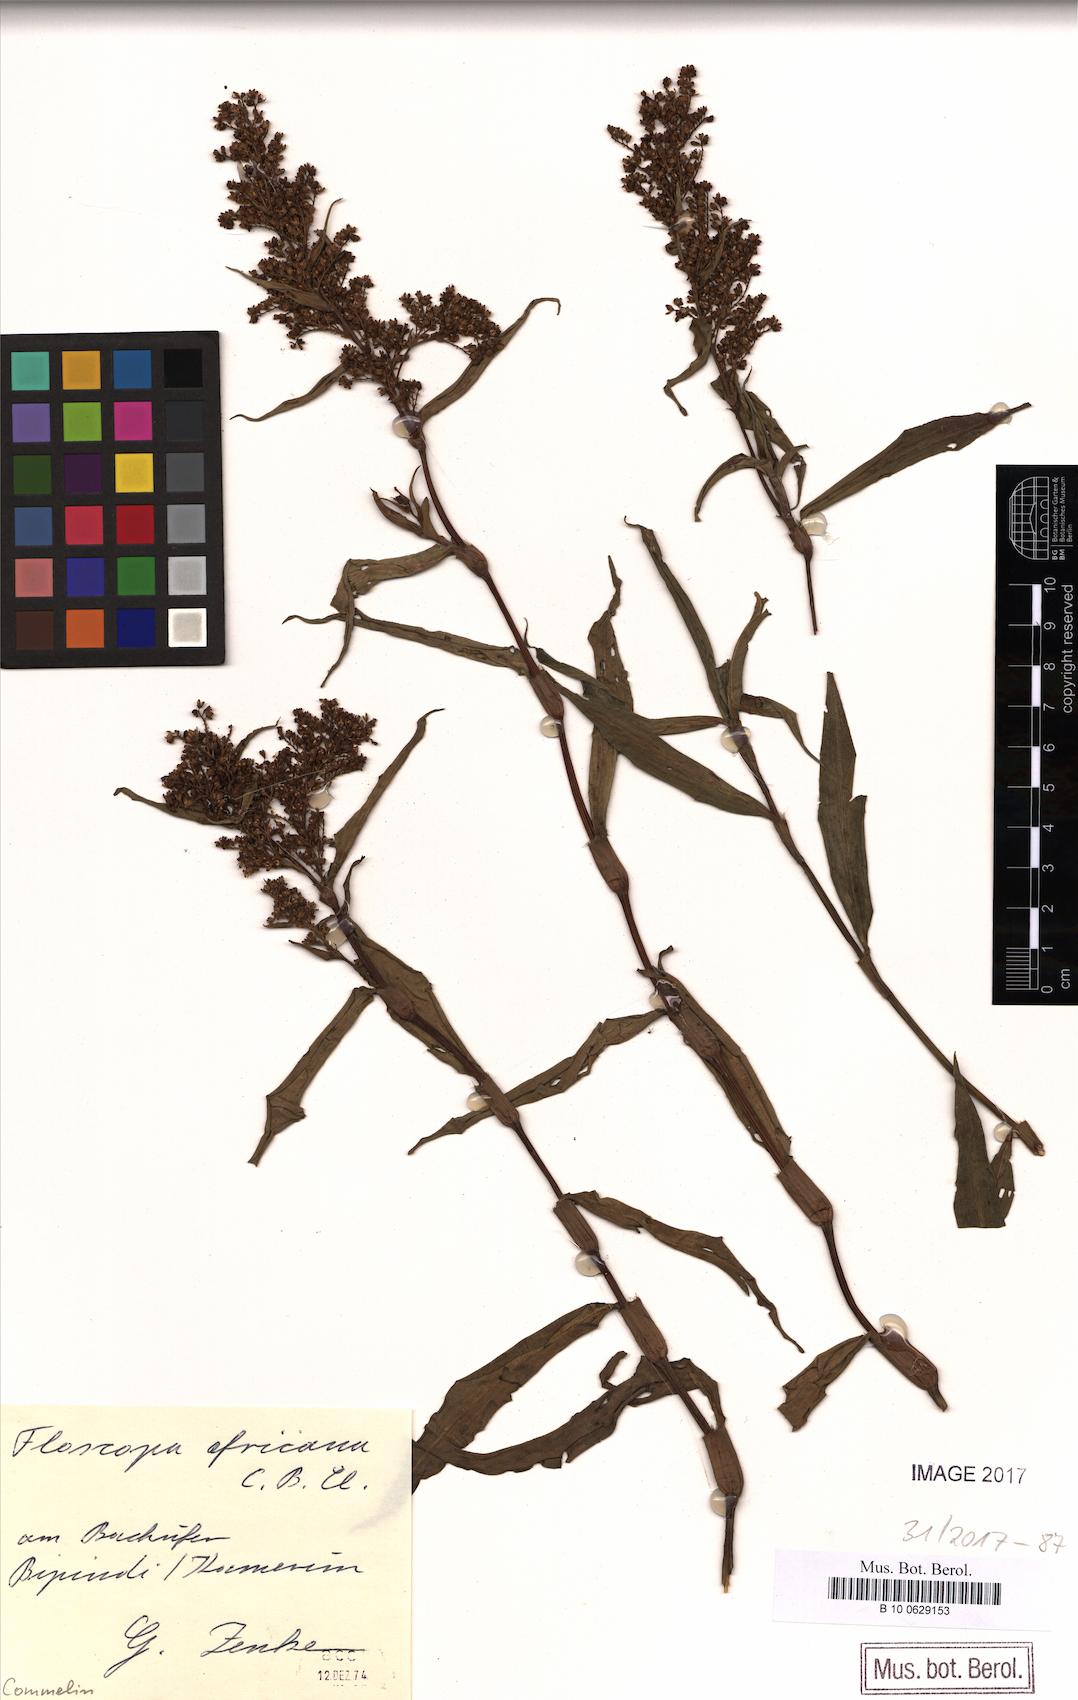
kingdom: Plantae
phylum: Tracheophyta
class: Liliopsida
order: Commelinales
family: Commelinaceae
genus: Floscopa
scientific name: Floscopa africana
